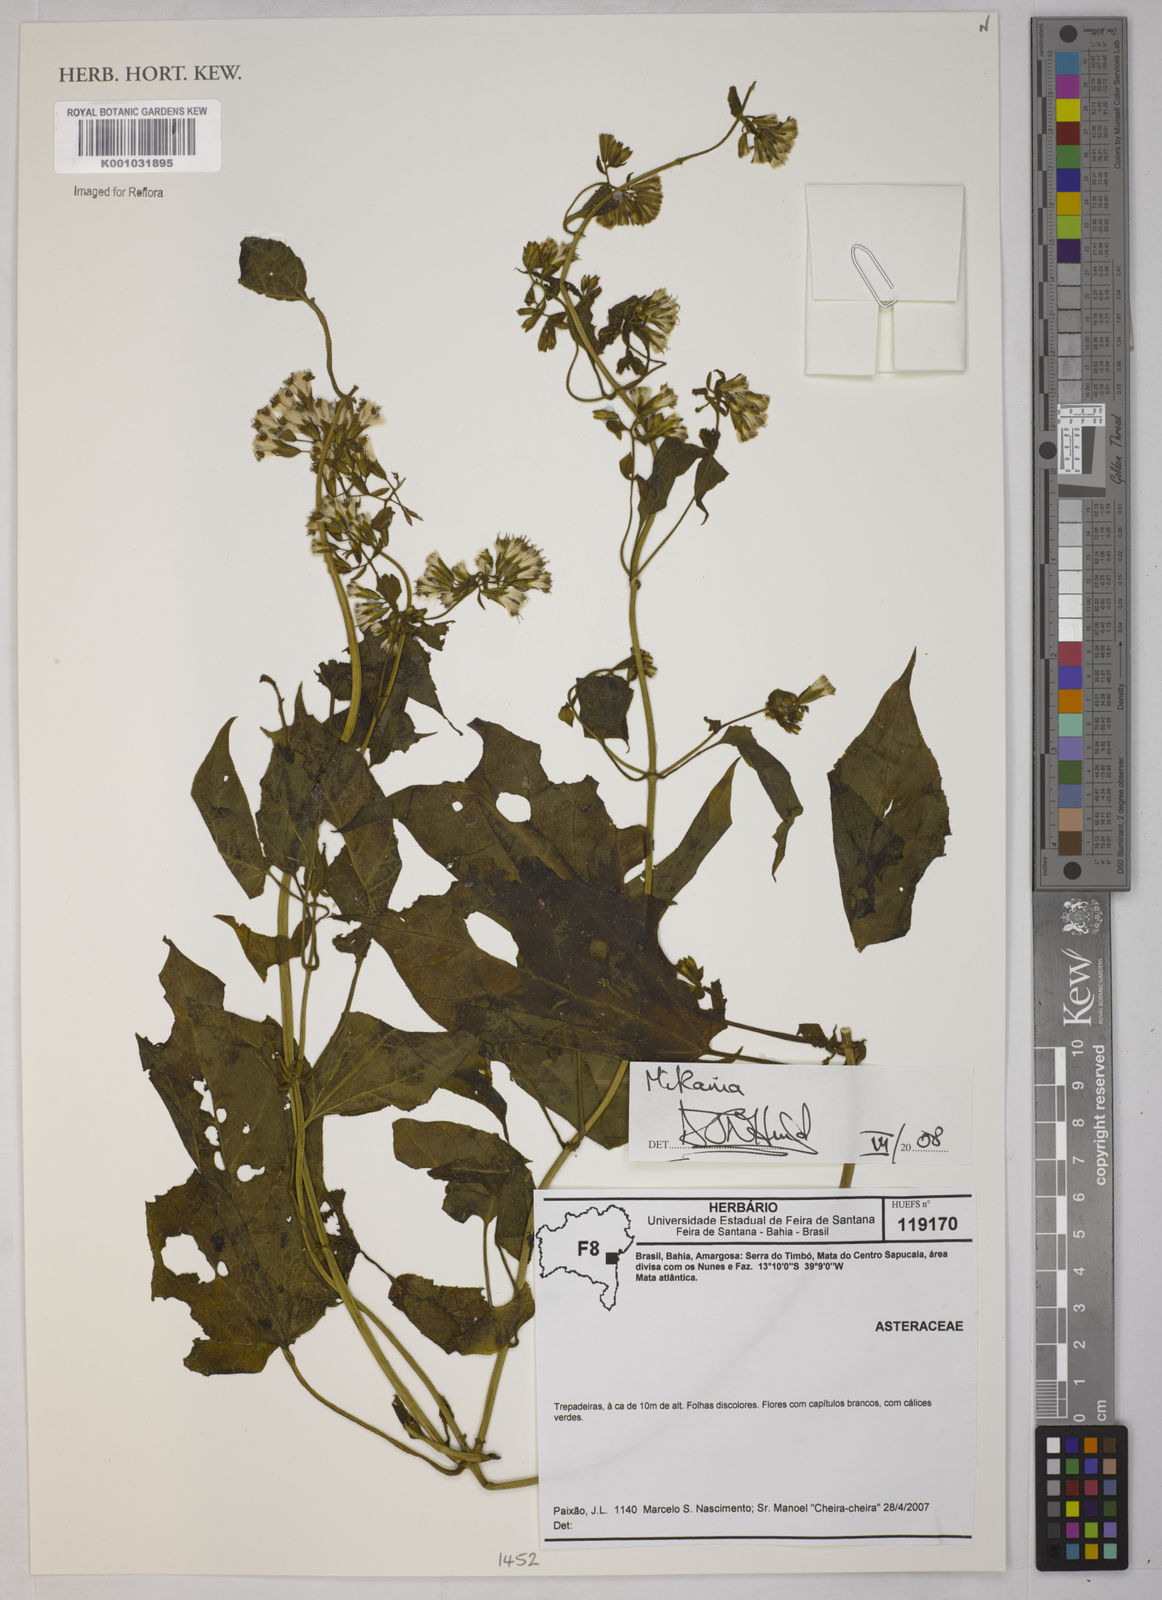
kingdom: Plantae
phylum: Tracheophyta
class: Magnoliopsida
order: Asterales
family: Asteraceae
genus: Mikania
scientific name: Mikania
